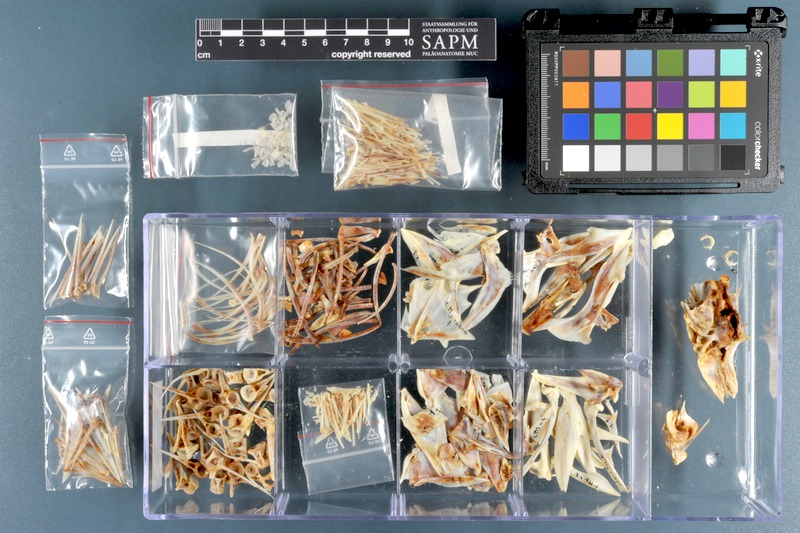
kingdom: Animalia
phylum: Chordata
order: Perciformes
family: Serranidae
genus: Mycteroperca
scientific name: Mycteroperca rubra
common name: Comb grouper
